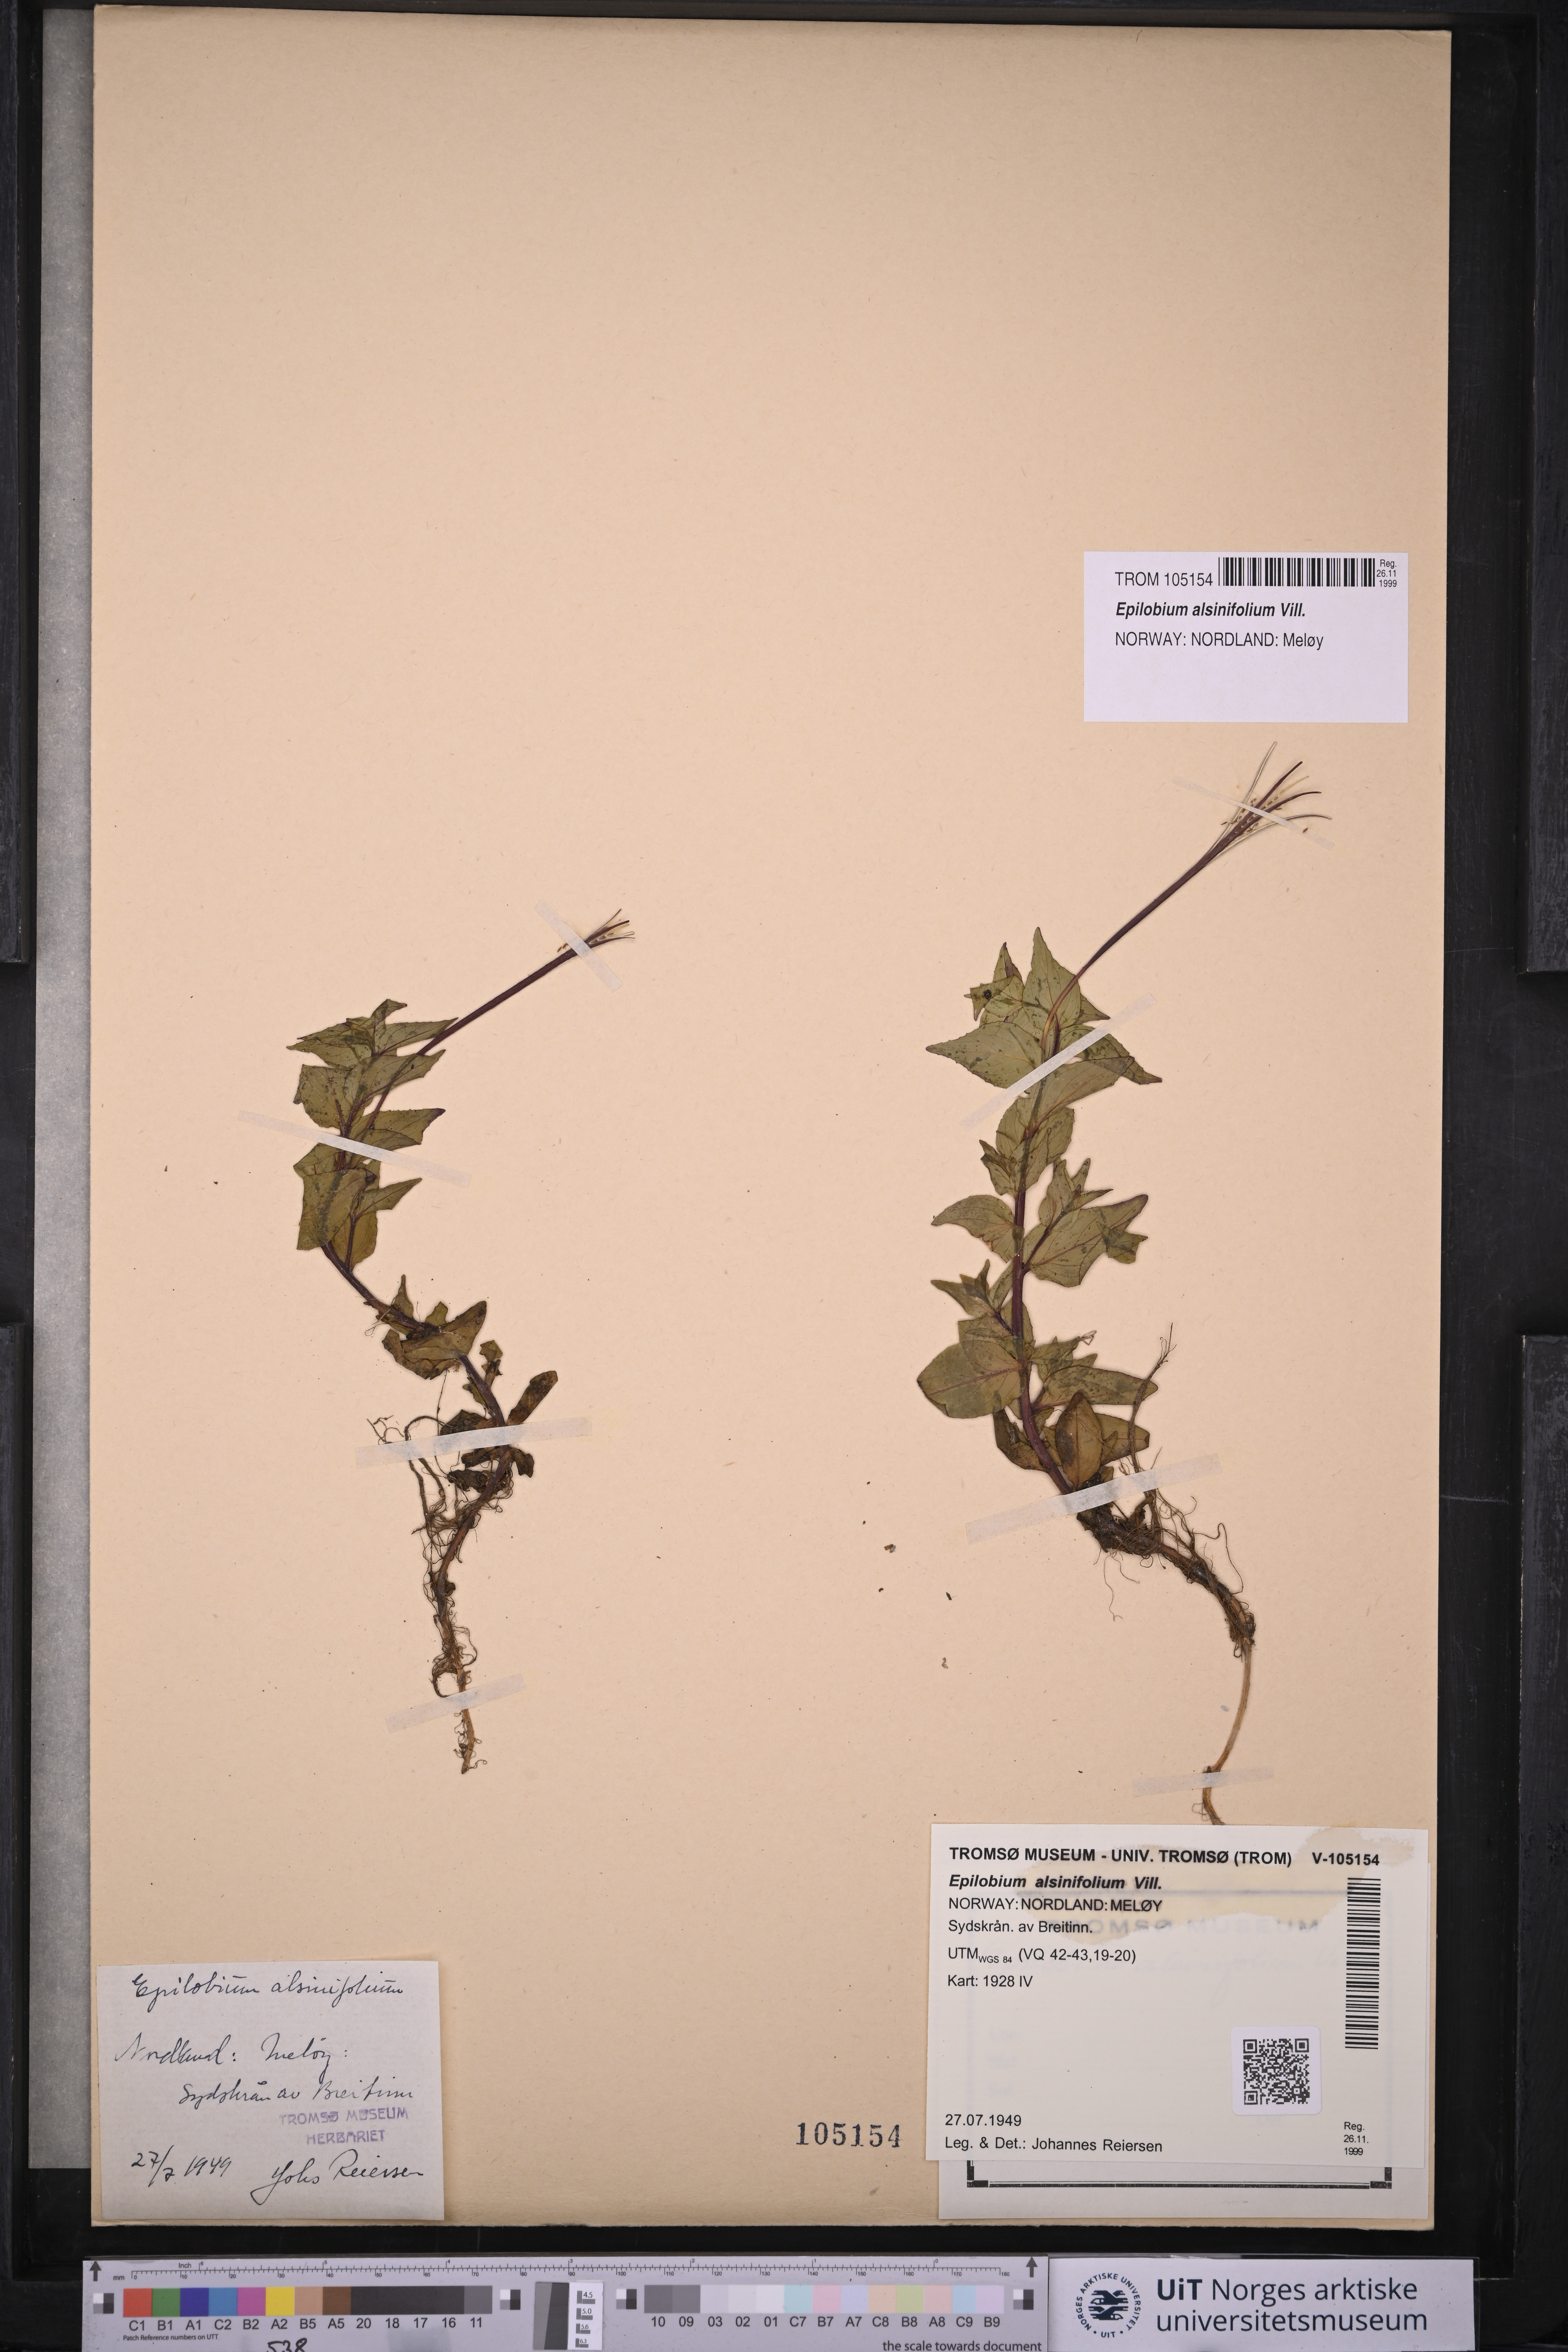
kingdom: Plantae
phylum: Tracheophyta
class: Magnoliopsida
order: Myrtales
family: Onagraceae
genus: Epilobium
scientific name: Epilobium alsinifolium
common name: Chickweed willowherb
